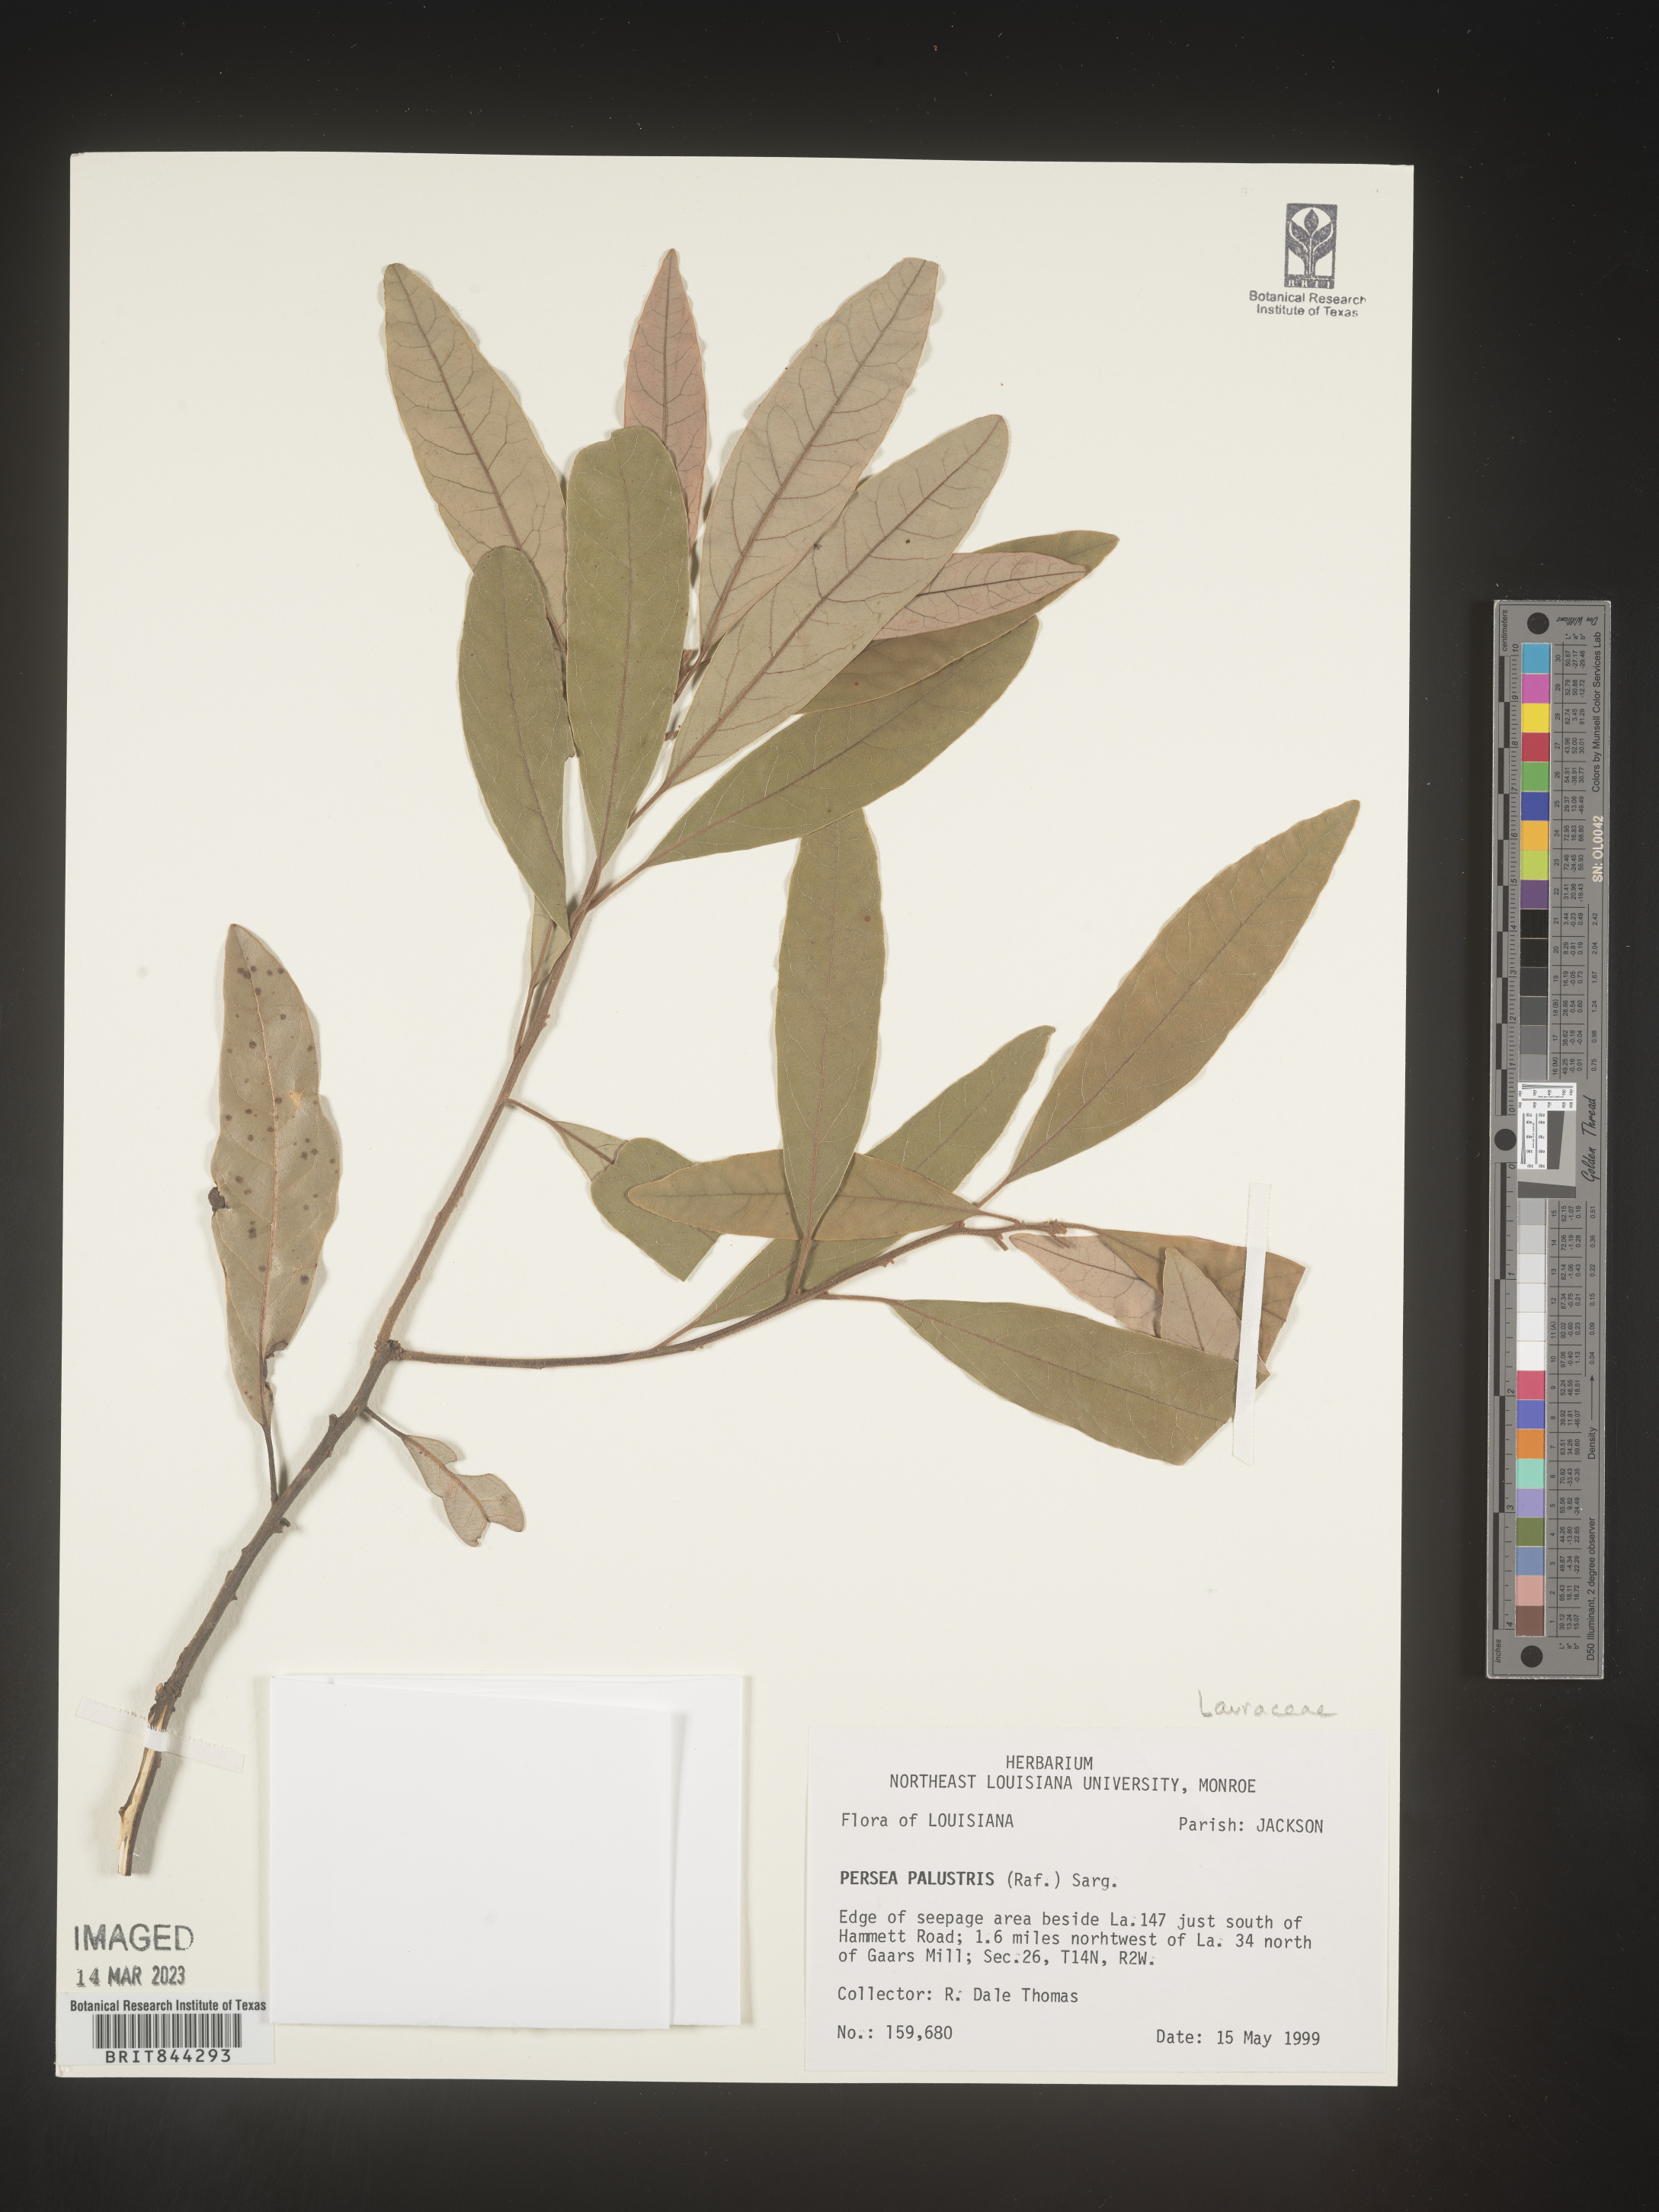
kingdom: Plantae
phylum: Tracheophyta
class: Magnoliopsida
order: Laurales
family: Lauraceae
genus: Persea
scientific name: Persea palustris
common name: Swampbay
